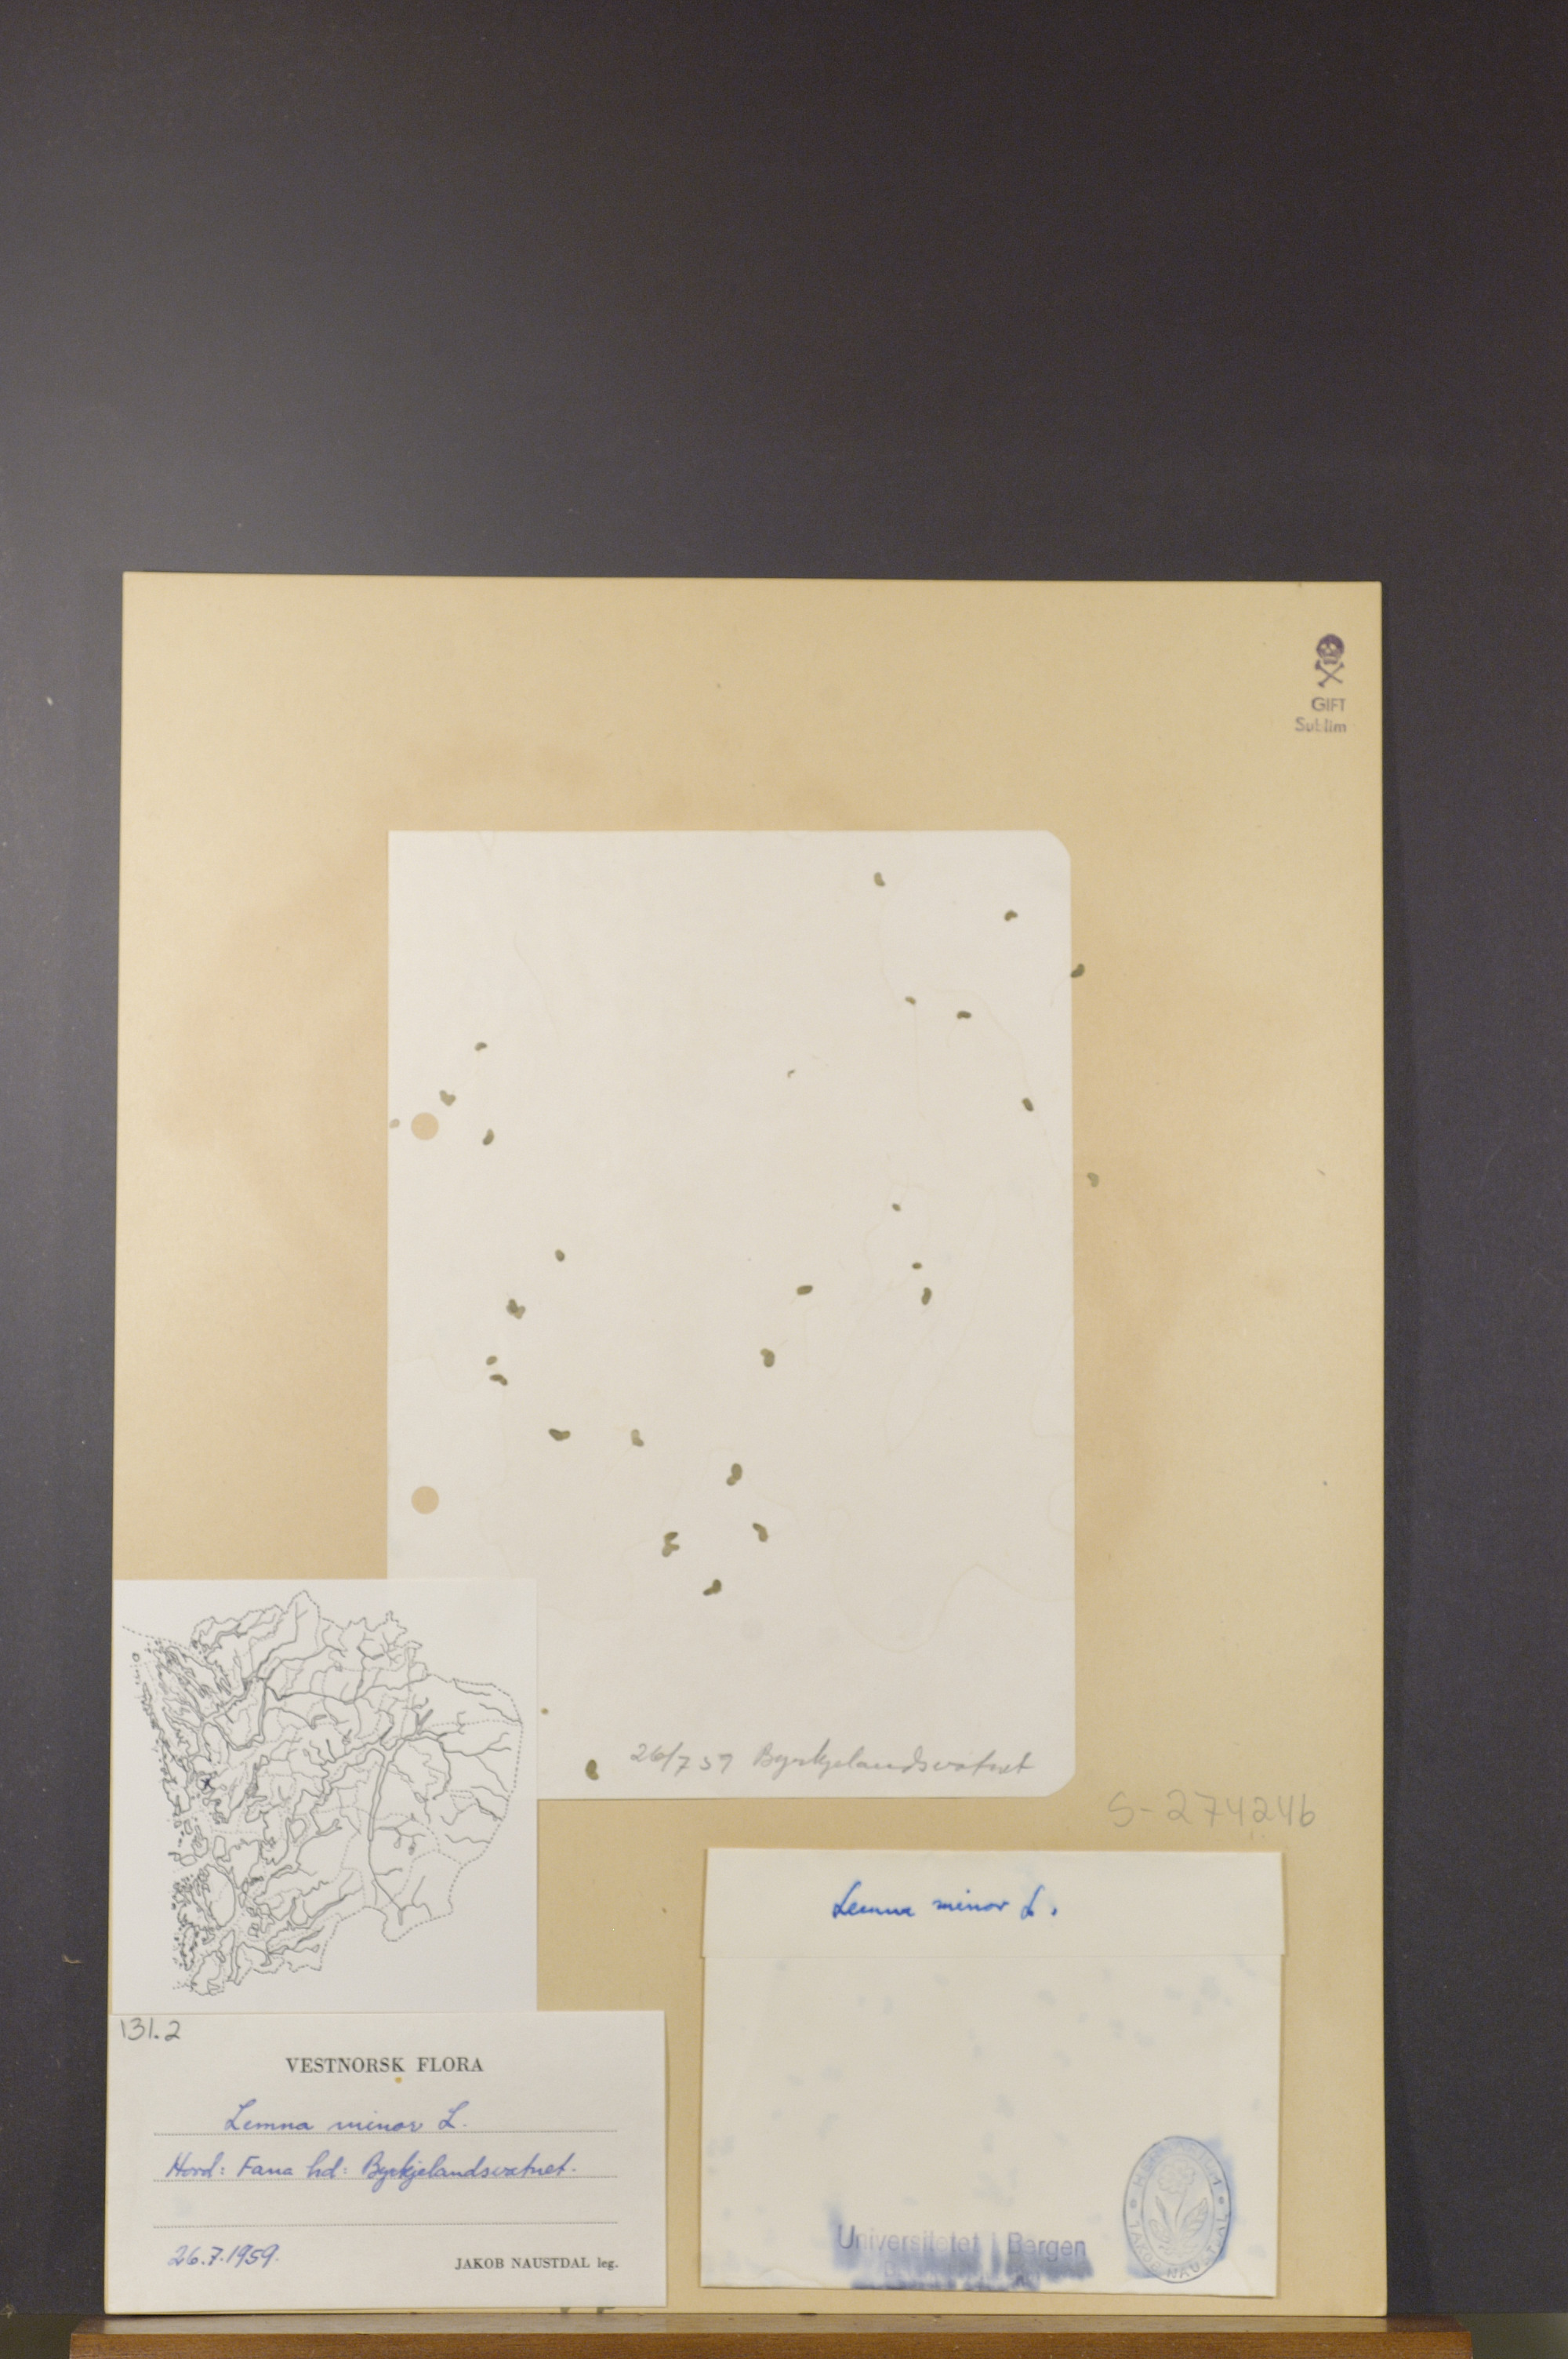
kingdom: Plantae
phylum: Tracheophyta
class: Liliopsida
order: Alismatales
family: Araceae
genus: Lemna
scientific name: Lemna minor
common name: Common duckweed
